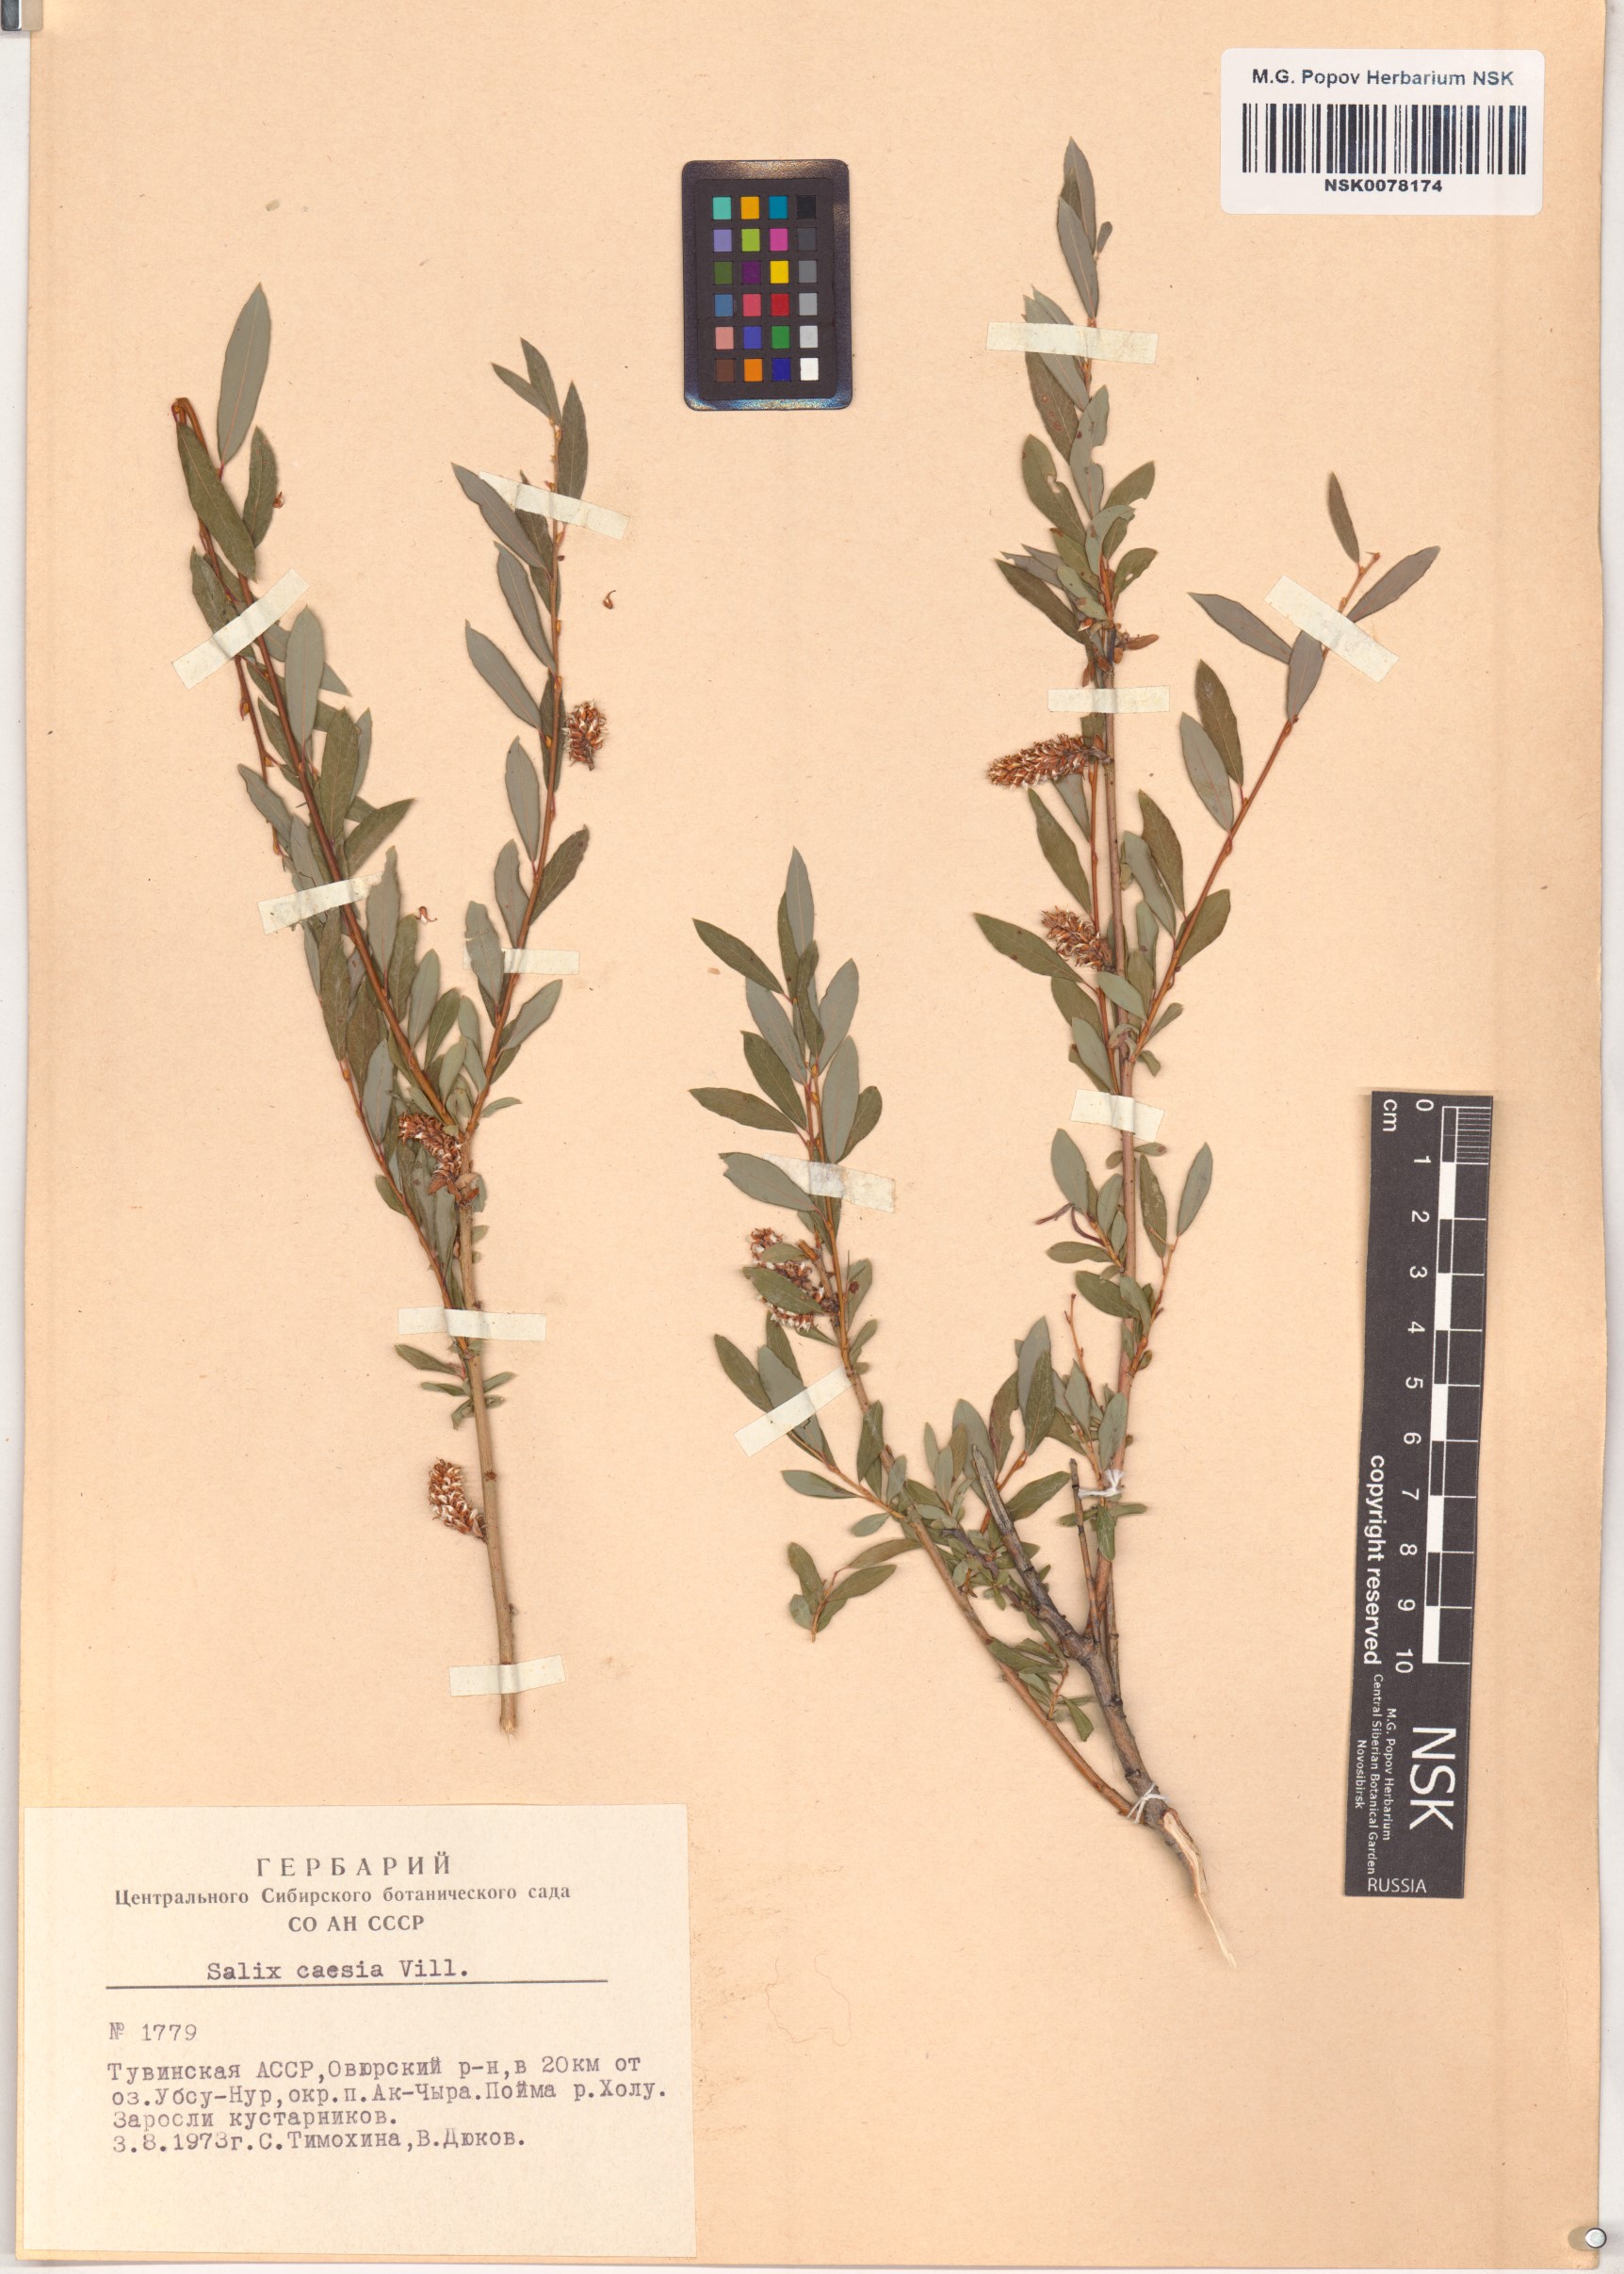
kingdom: Plantae
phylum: Tracheophyta
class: Magnoliopsida
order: Malpighiales
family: Salicaceae
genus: Salix
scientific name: Salix caesia
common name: Blue willow
